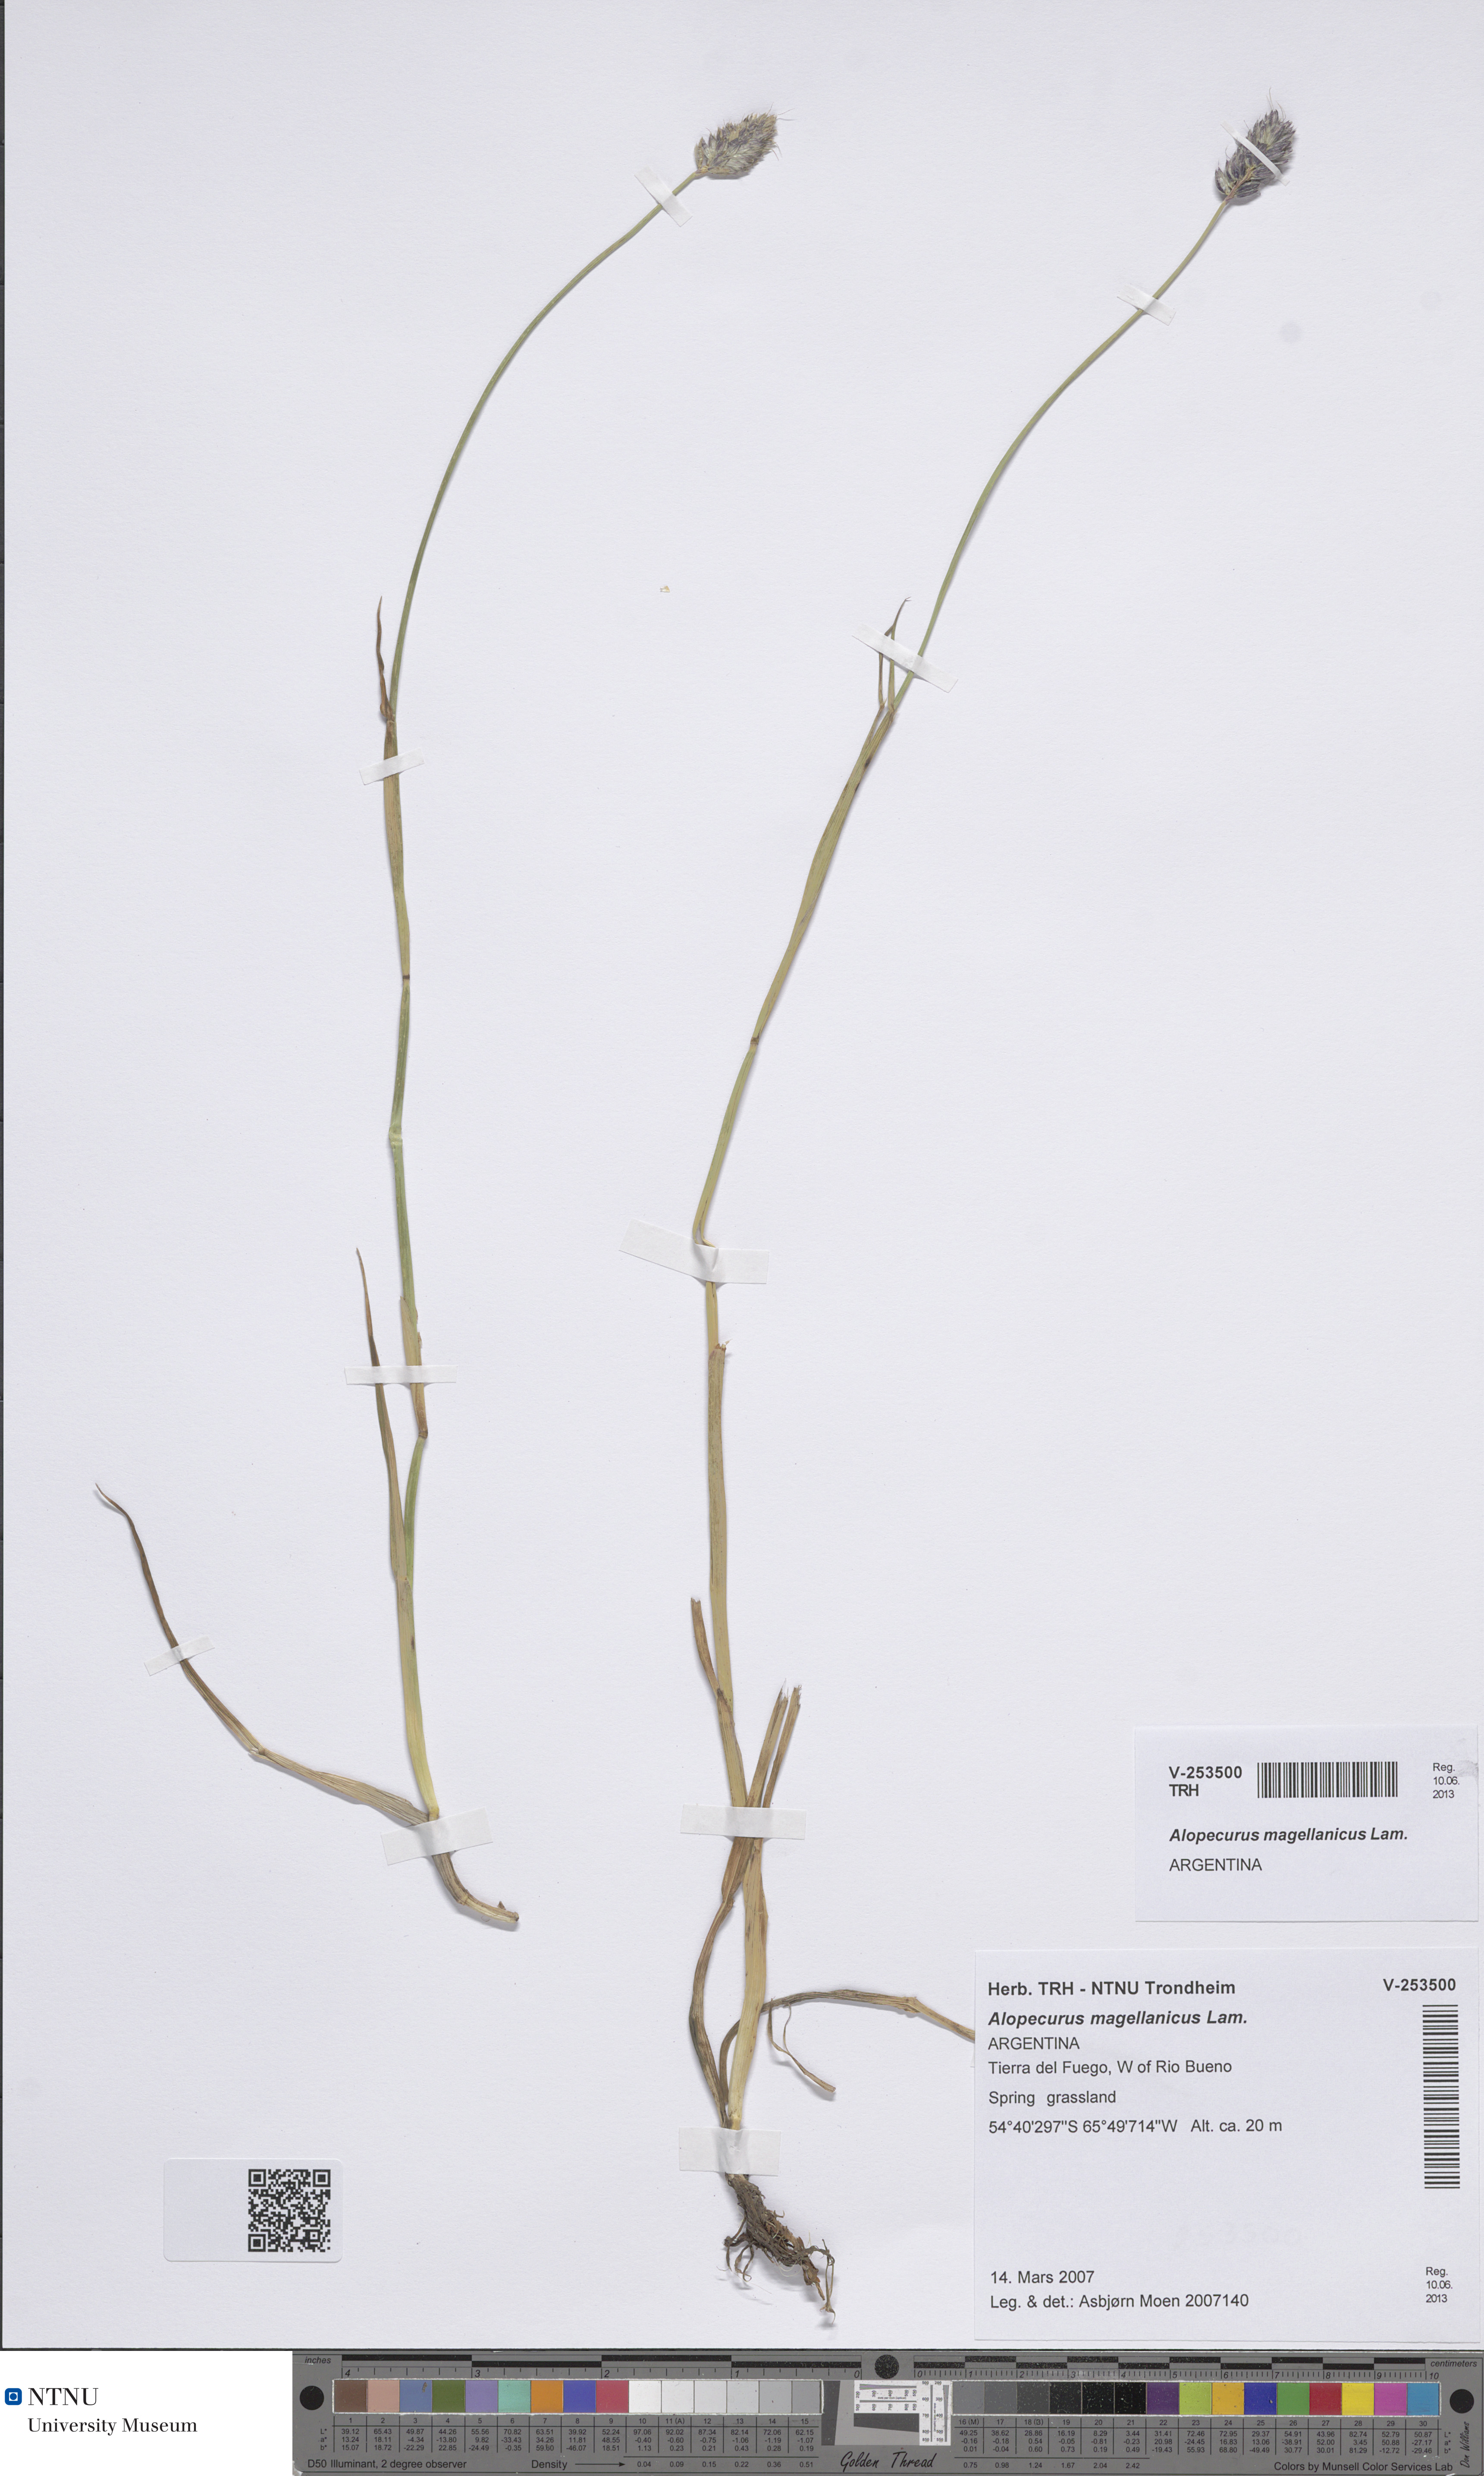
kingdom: Plantae
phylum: Tracheophyta
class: Liliopsida
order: Poales
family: Poaceae
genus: Alopecurus
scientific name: Alopecurus magellanicus
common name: Alpine foxtail
